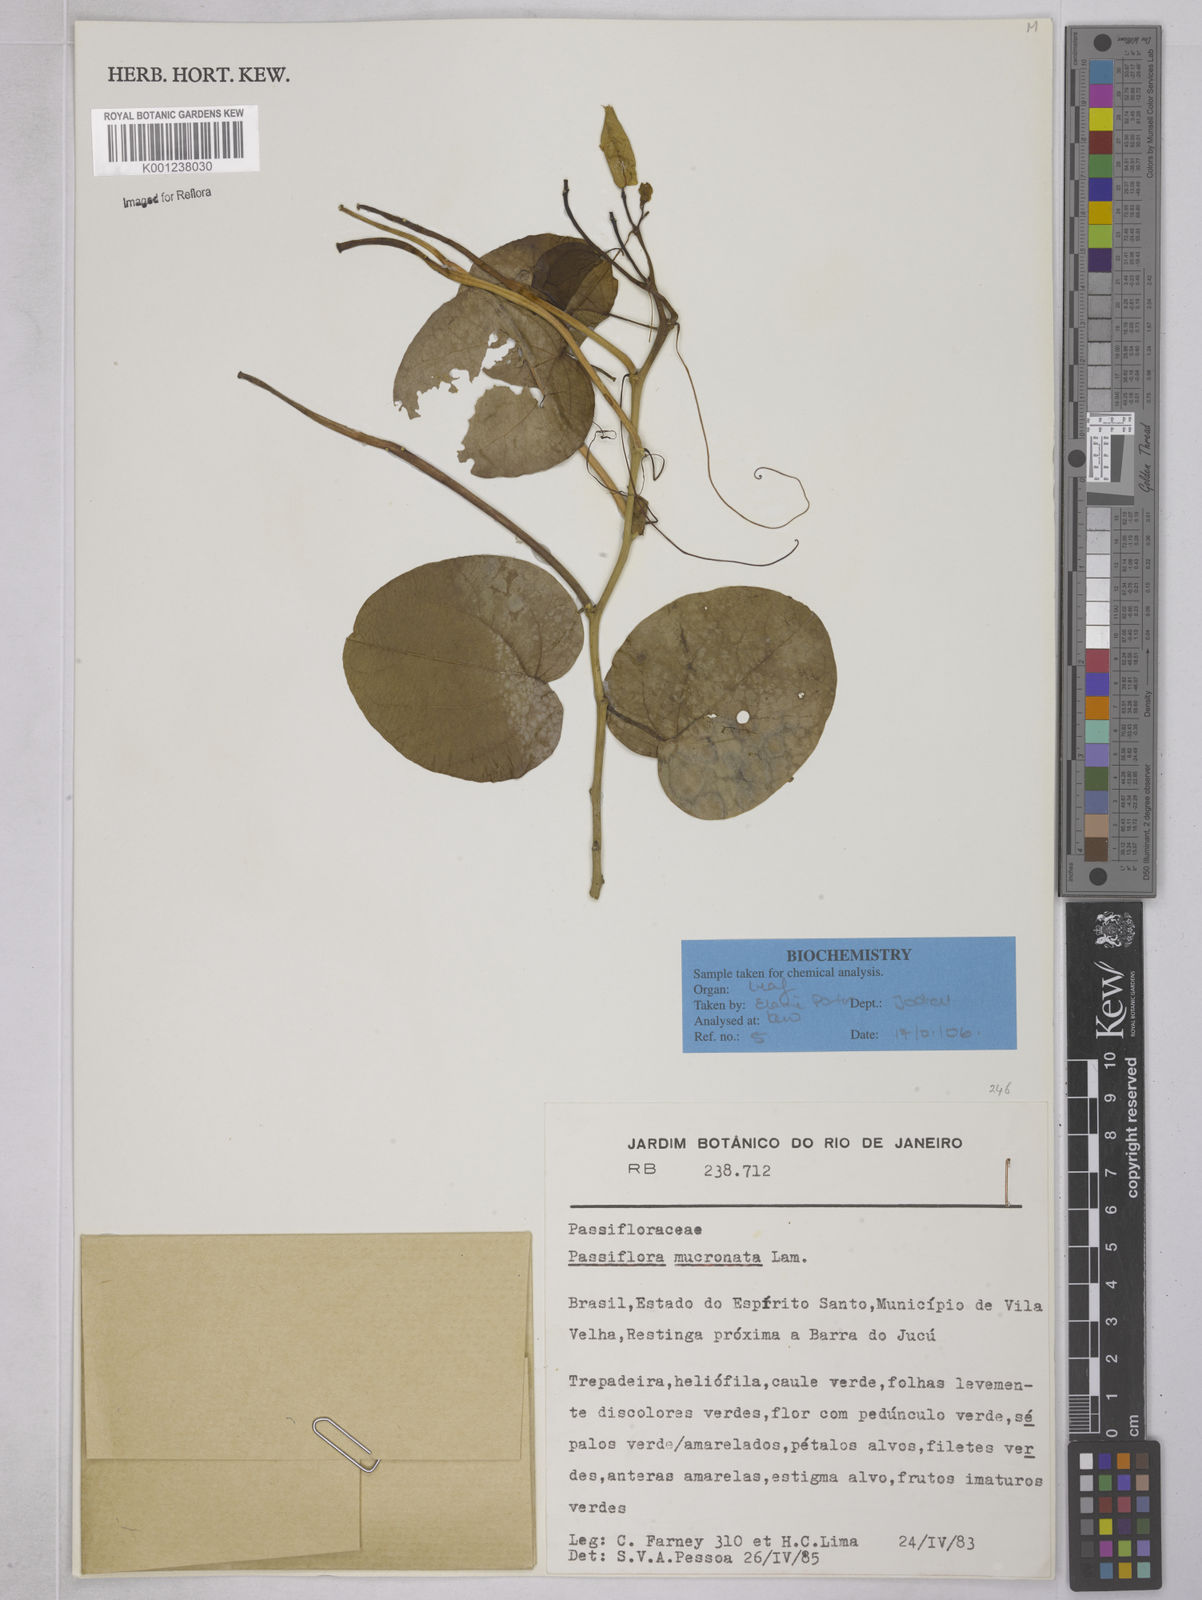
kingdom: Plantae
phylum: Tracheophyta
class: Magnoliopsida
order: Malpighiales
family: Passifloraceae
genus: Passiflora
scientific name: Passiflora mucronata
